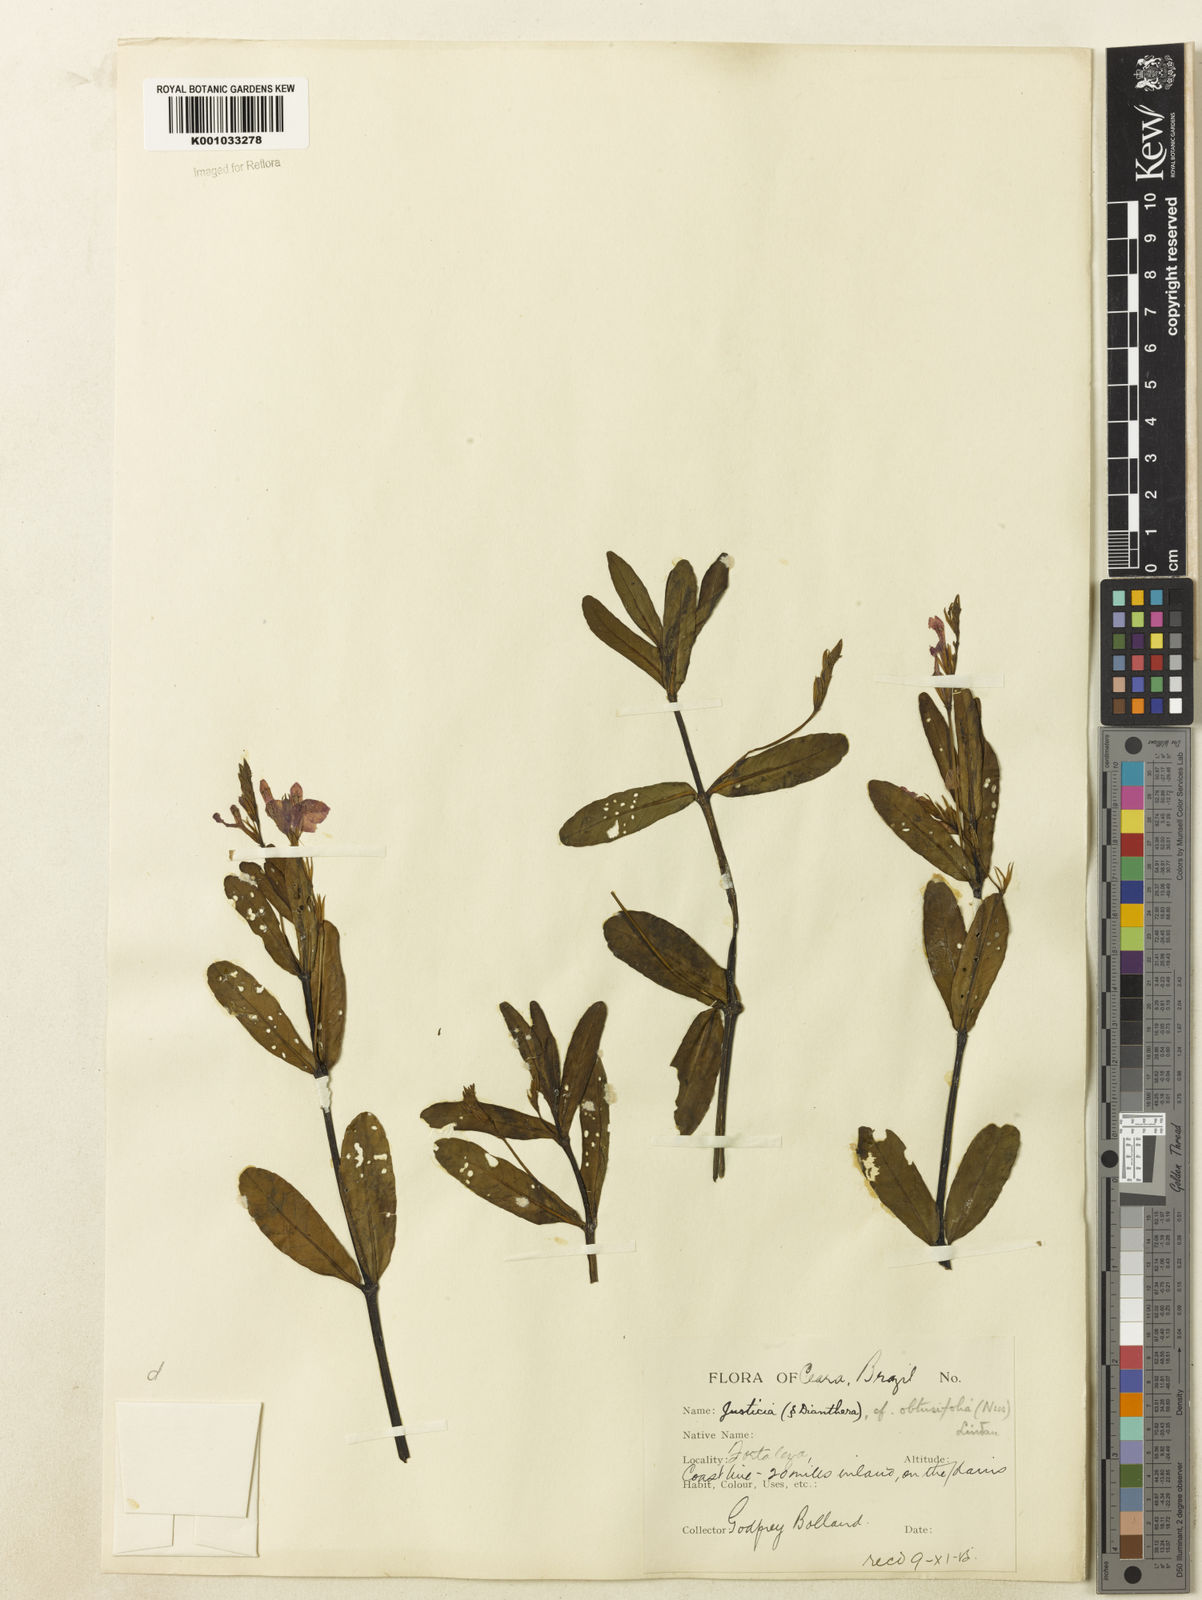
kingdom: Plantae
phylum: Tracheophyta
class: Magnoliopsida
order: Lamiales
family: Acanthaceae
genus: Dianthera
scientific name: Dianthera laevilinguis
